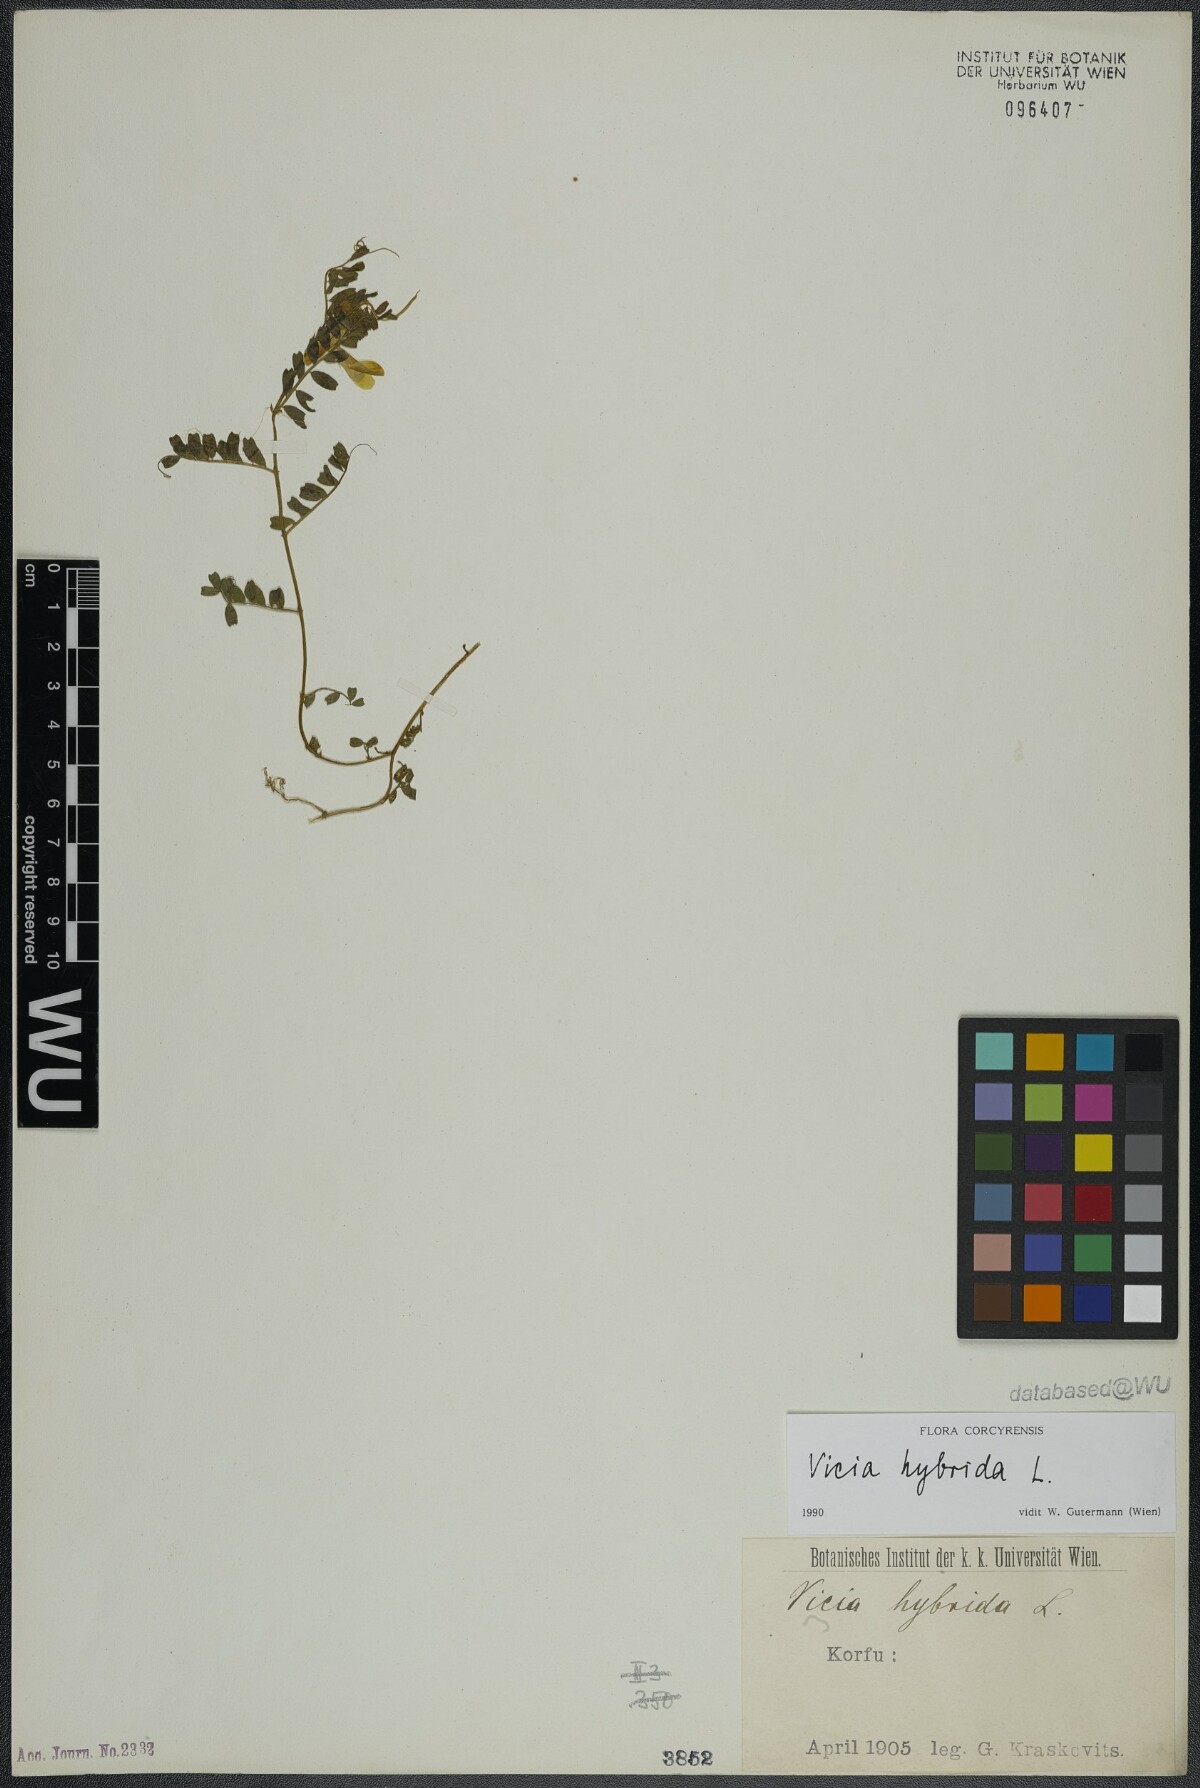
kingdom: Plantae
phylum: Tracheophyta
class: Magnoliopsida
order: Fabales
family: Fabaceae
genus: Vicia
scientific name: Vicia hybrida
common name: Hairy yellow vetch
